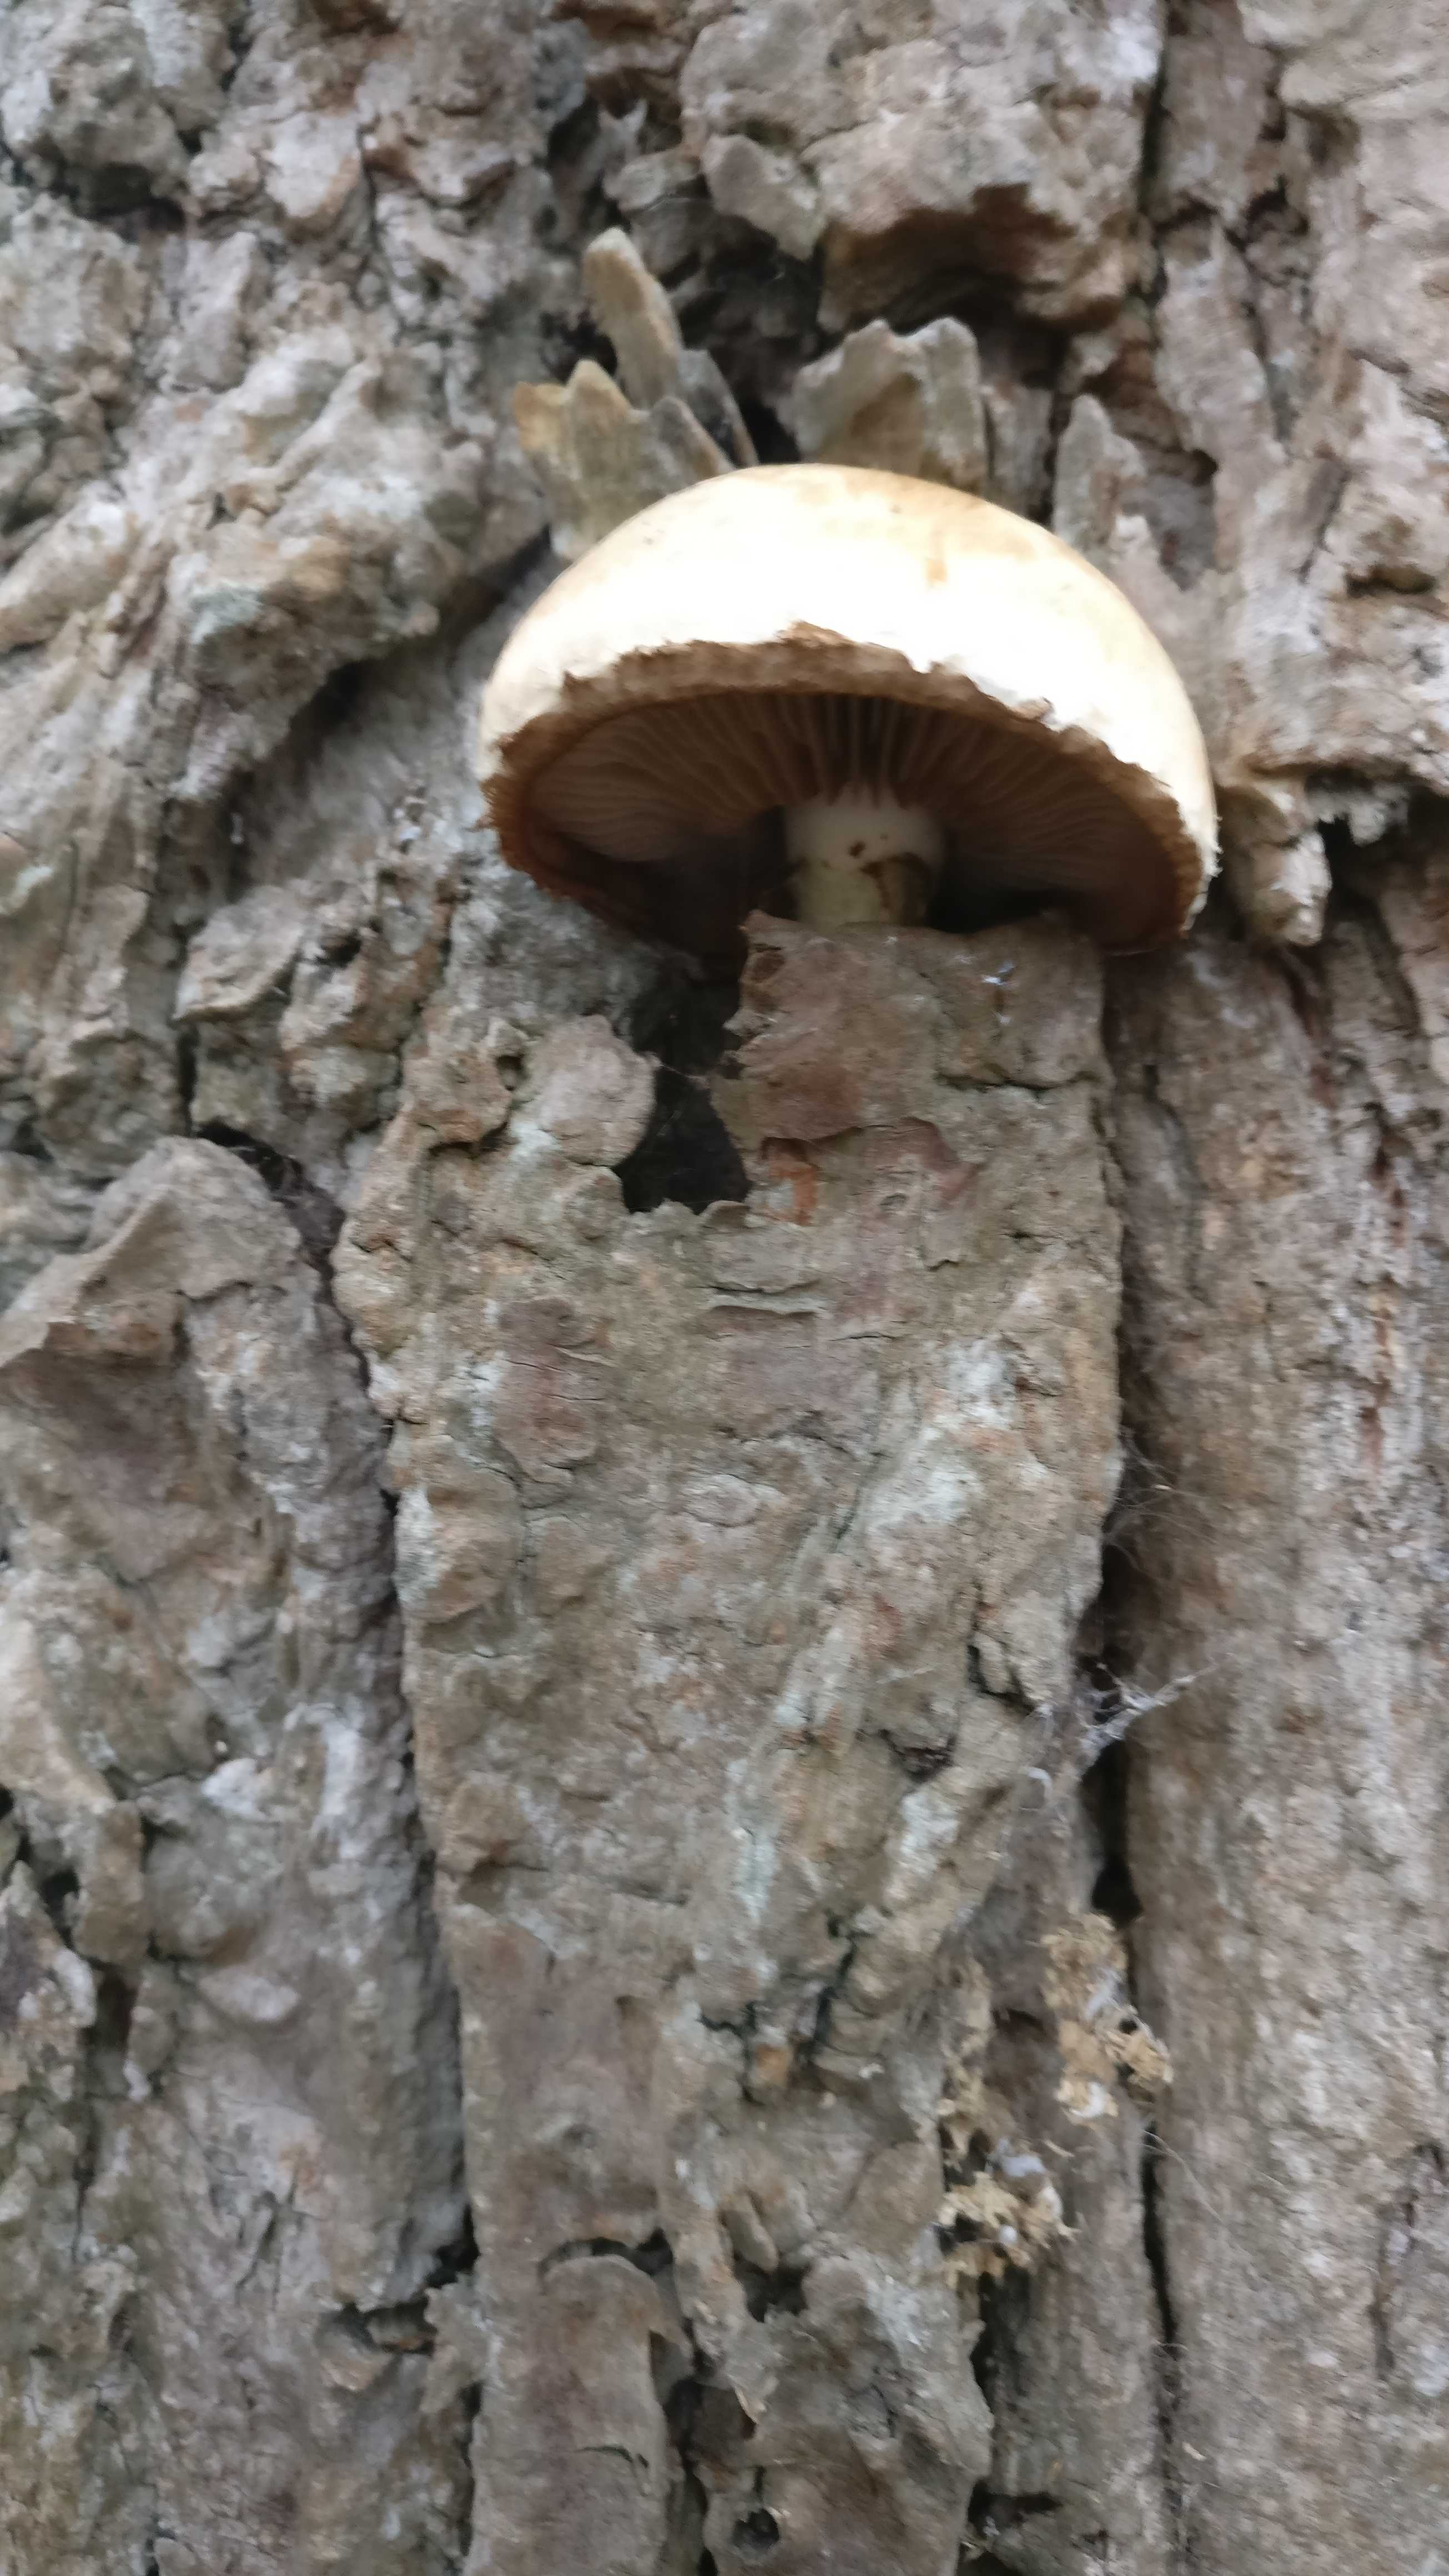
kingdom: Fungi
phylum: Basidiomycota
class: Agaricomycetes
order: Agaricales
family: Strophariaceae
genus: Pholiota
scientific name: Pholiota populnea
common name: poppel-kæmpeskælhat
